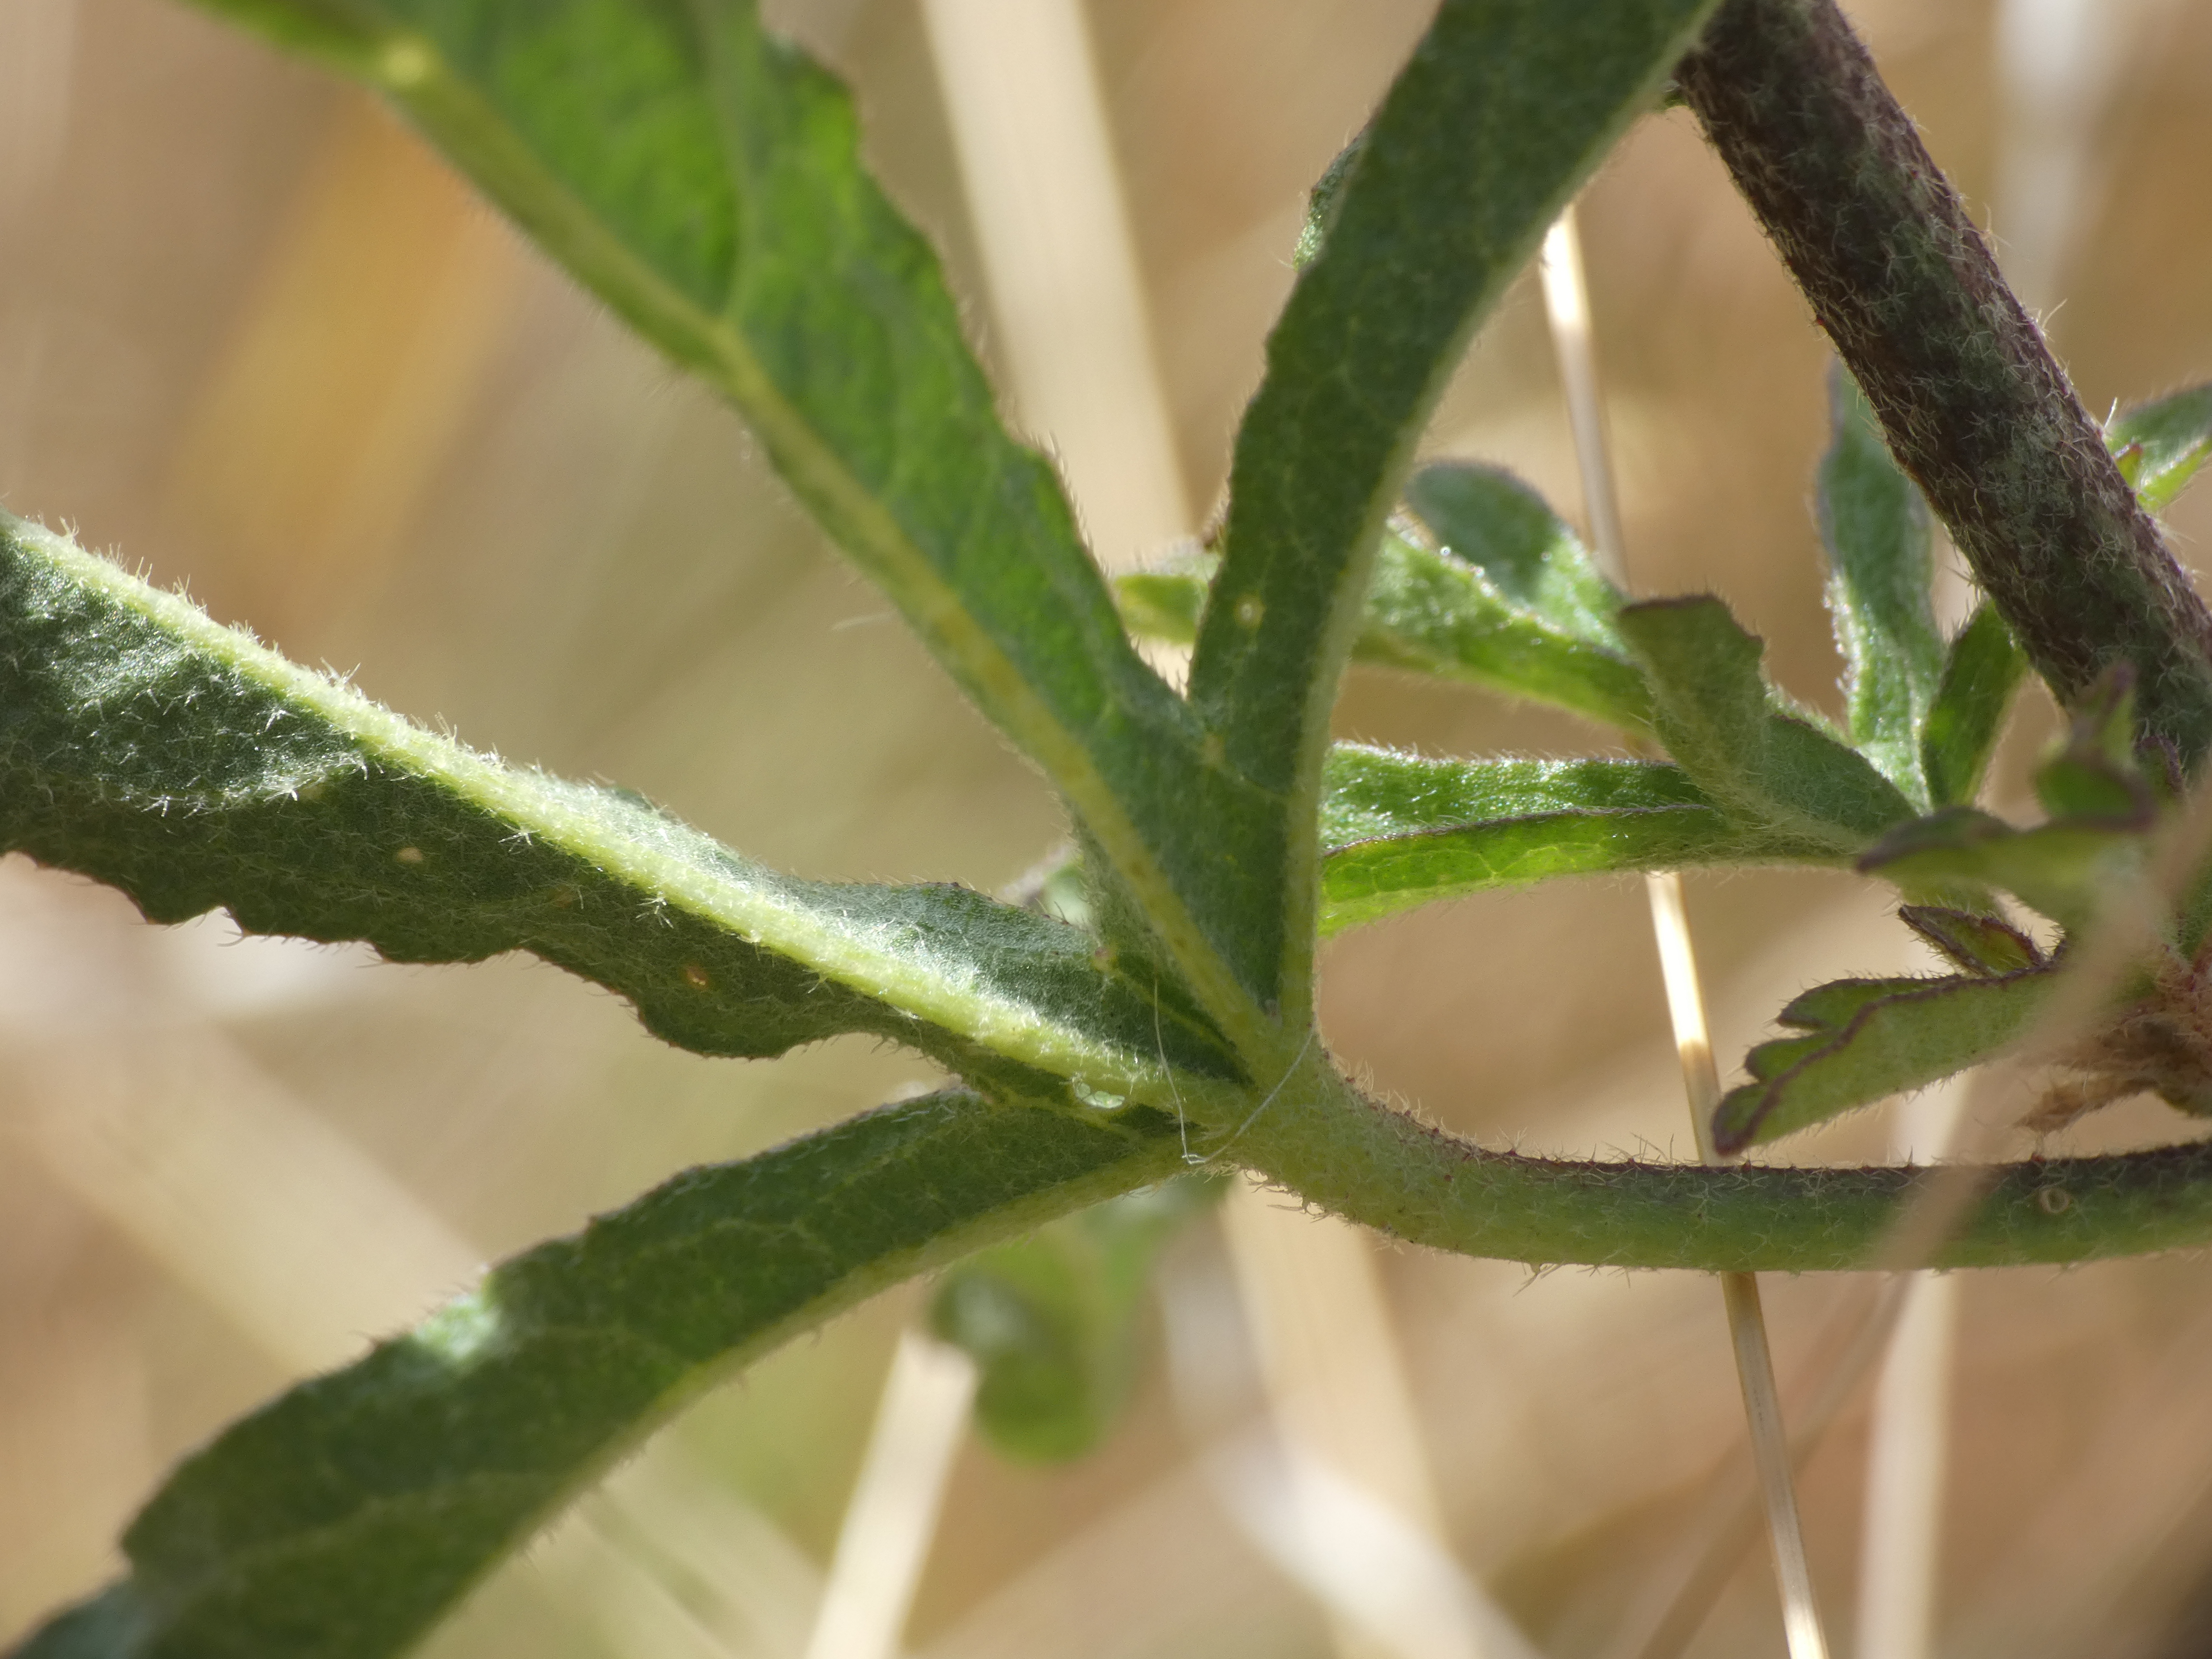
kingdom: Plantae
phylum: Tracheophyta
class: Magnoliopsida
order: Malvales
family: Malvaceae
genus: Malva
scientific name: Malva alcea
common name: Rosen-katost
